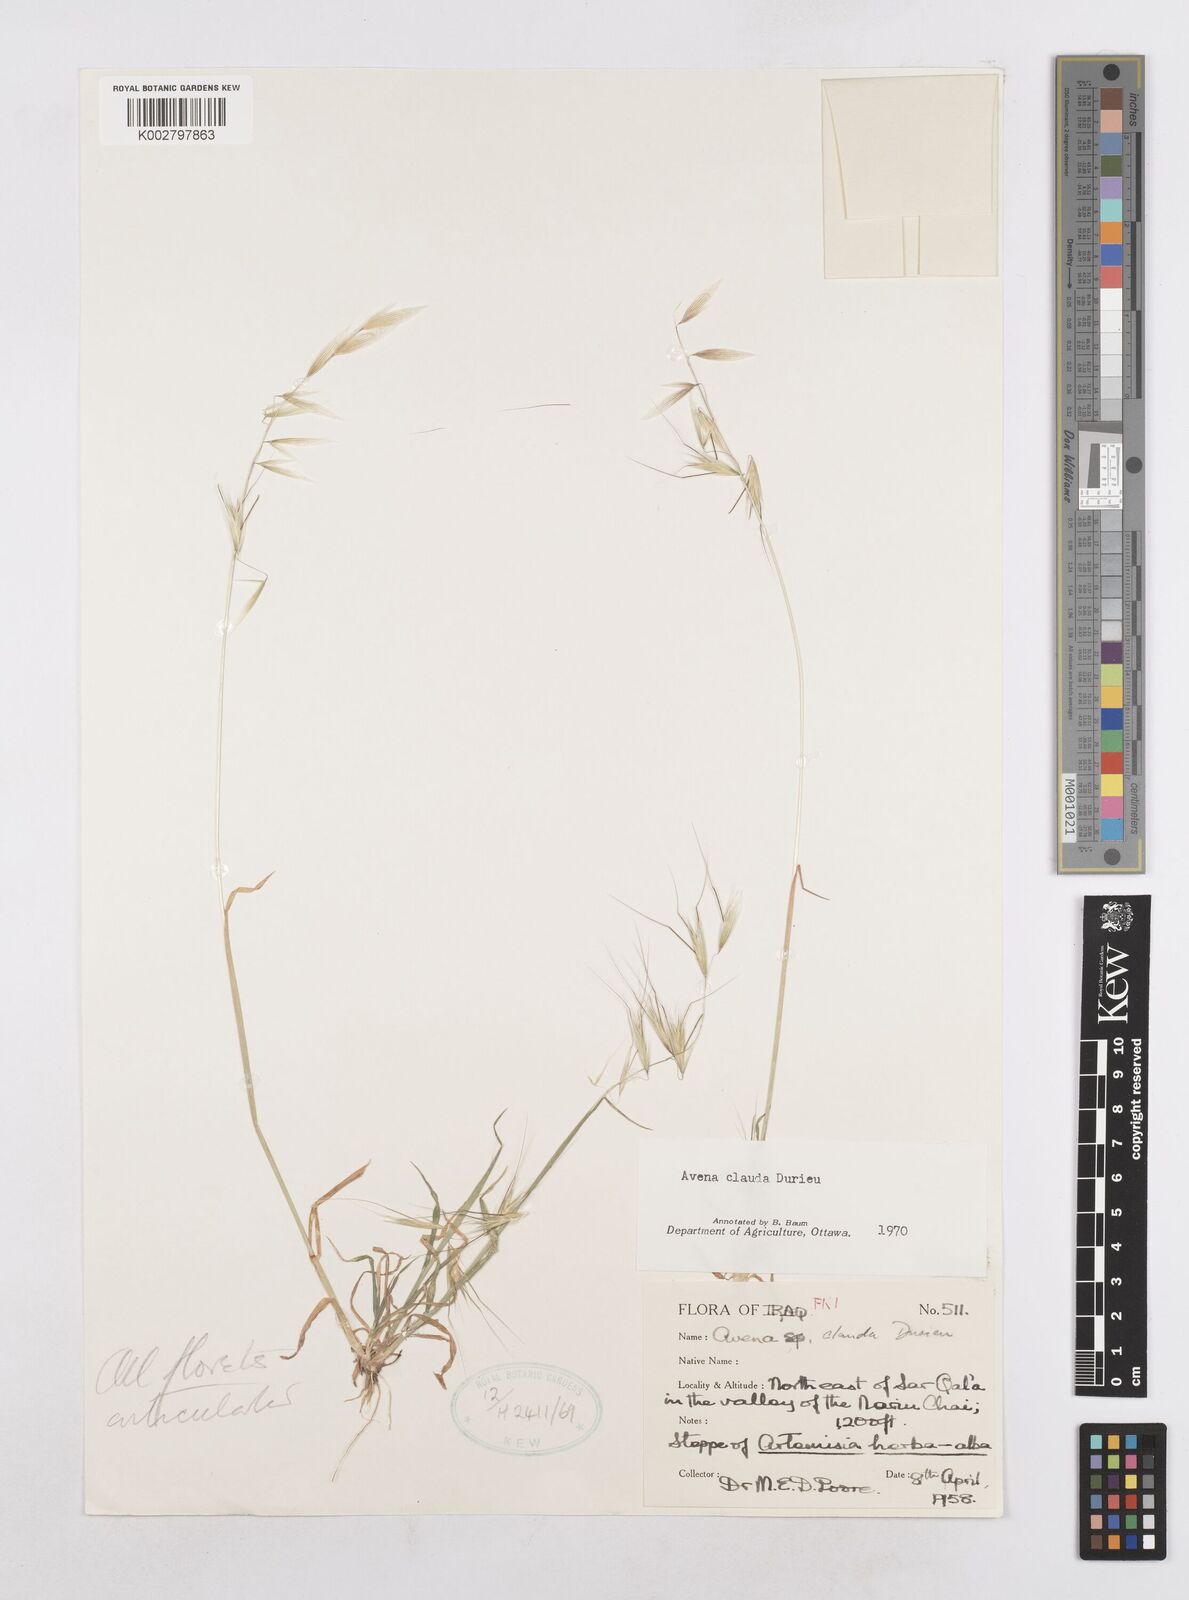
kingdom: Plantae
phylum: Tracheophyta
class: Liliopsida
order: Poales
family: Poaceae
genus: Avena
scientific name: Avena clauda
